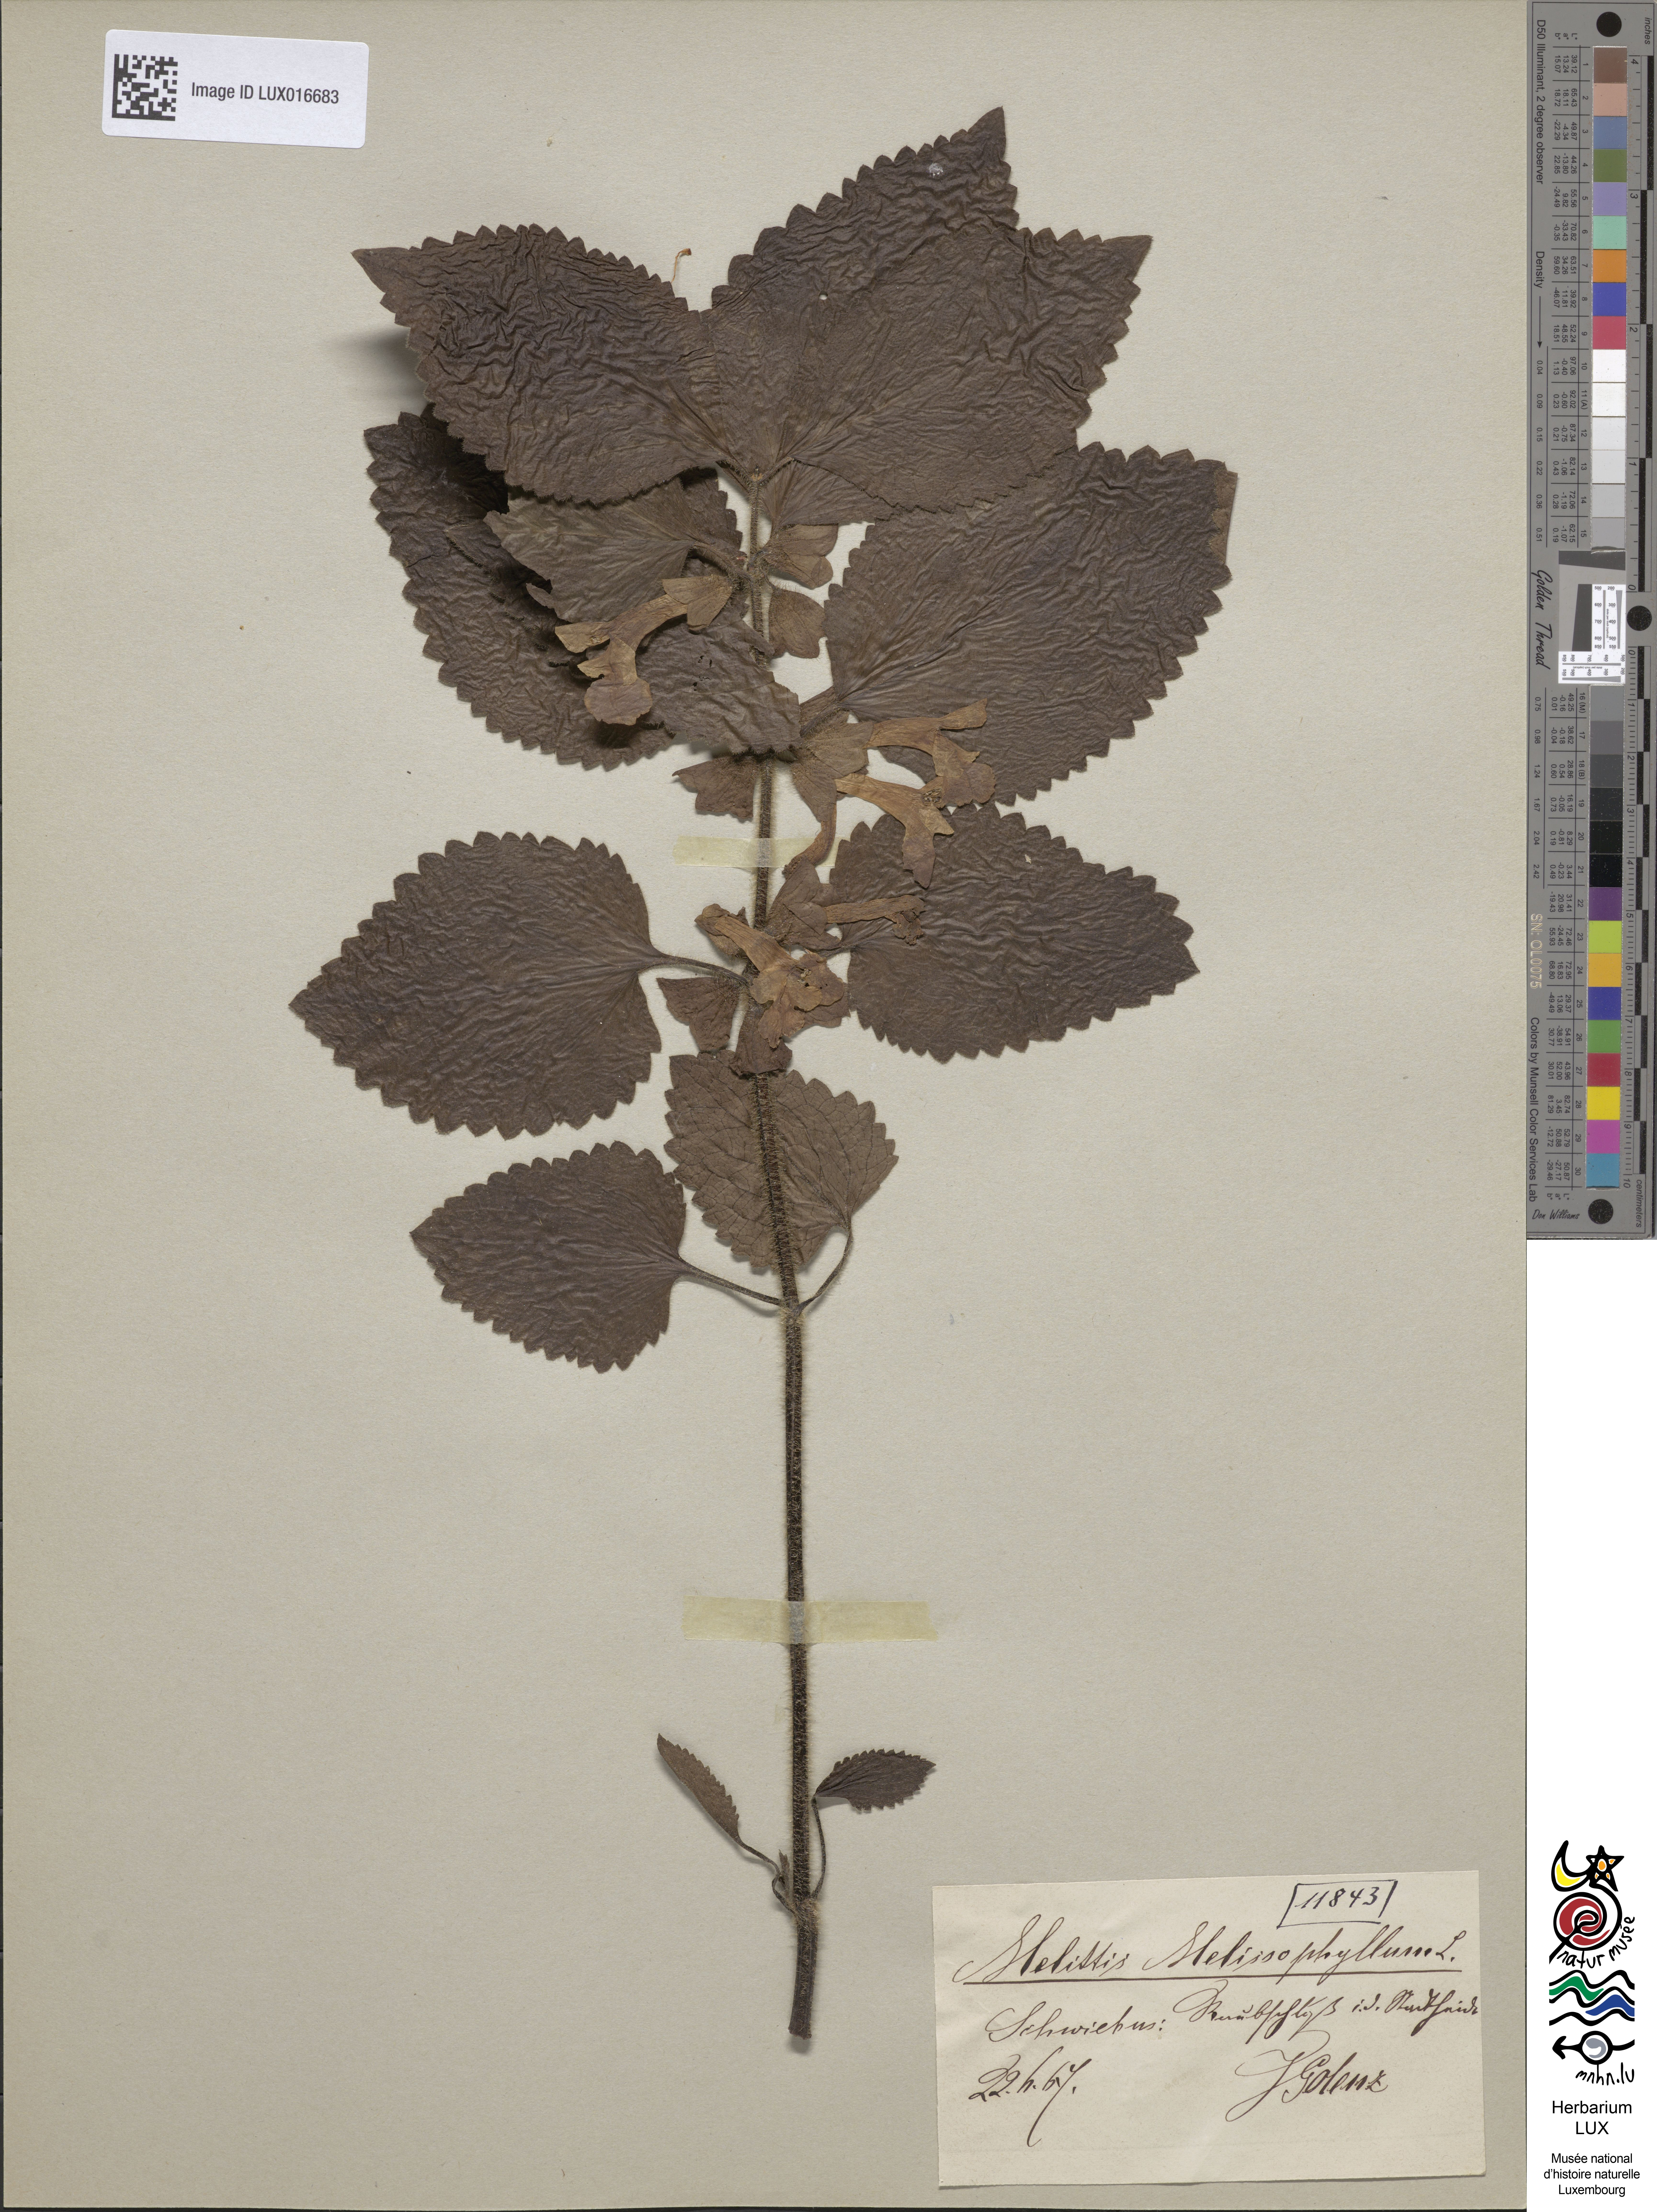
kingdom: Plantae
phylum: Tracheophyta
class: Magnoliopsida
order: Lamiales
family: Lamiaceae
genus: Melittis
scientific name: Melittis melissophyllum
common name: Bastard balm
